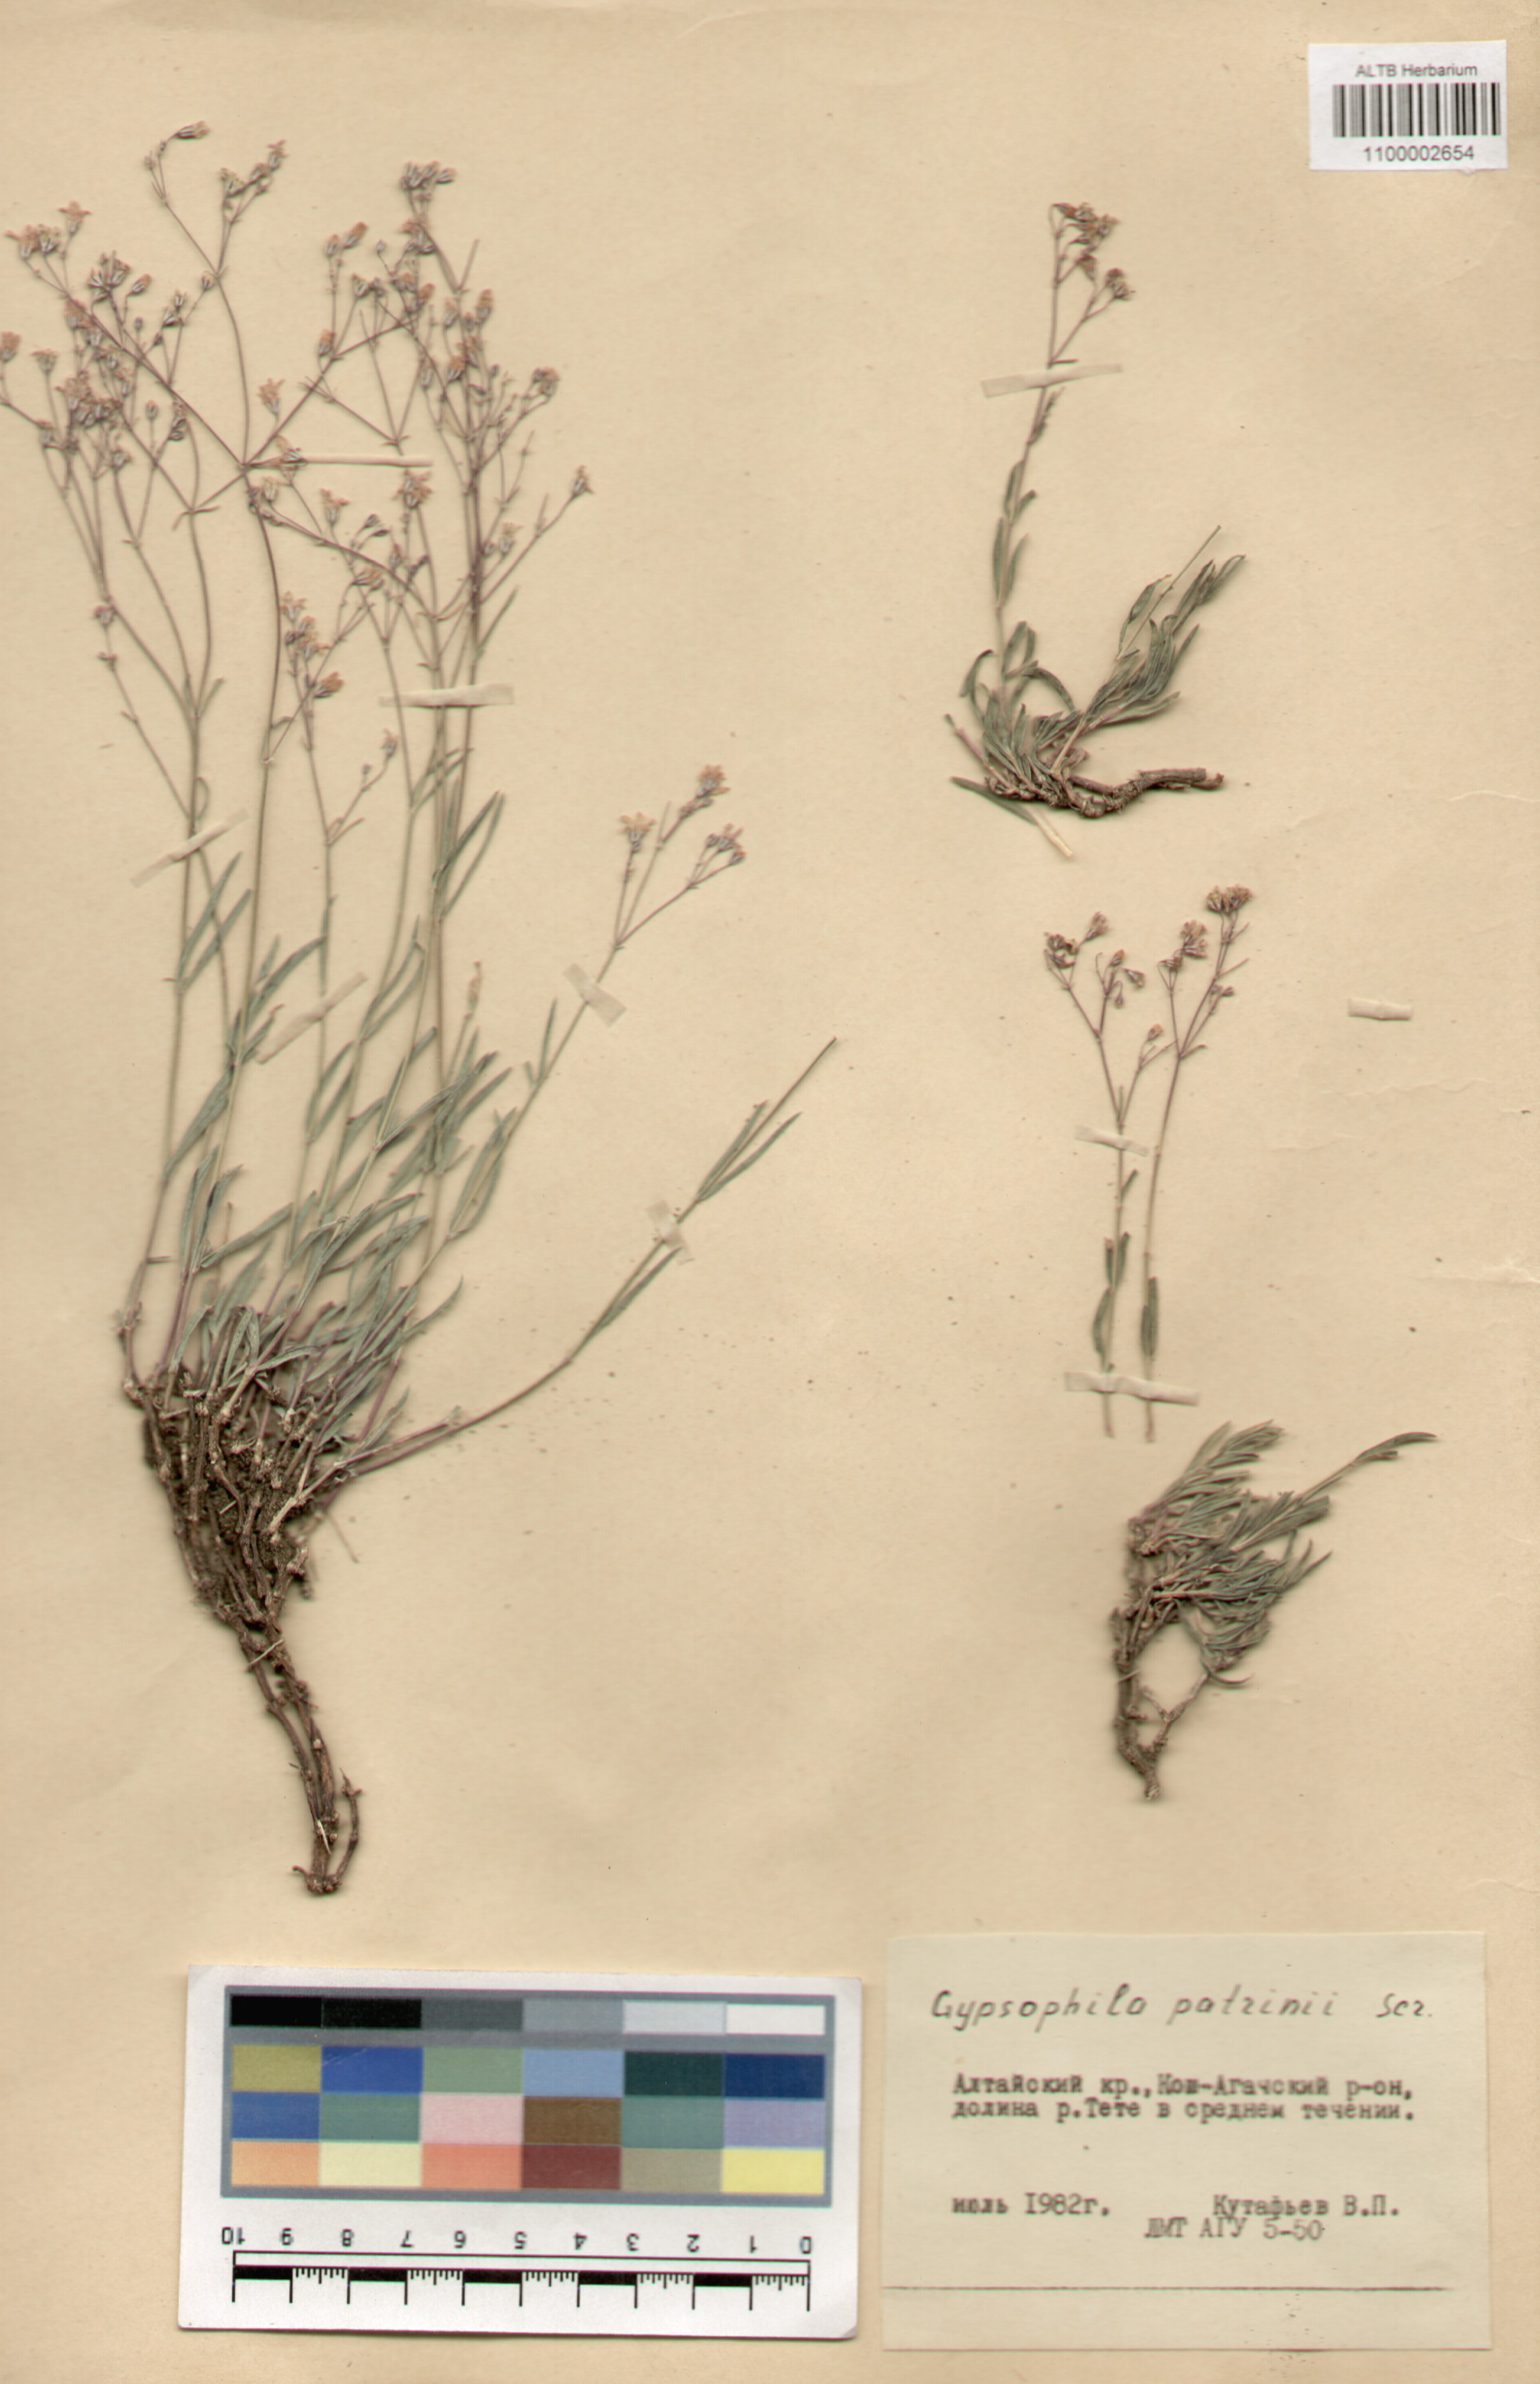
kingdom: Plantae
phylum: Tracheophyta
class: Magnoliopsida
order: Caryophyllales
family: Caryophyllaceae
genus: Gypsophila
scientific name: Gypsophila patrinii
